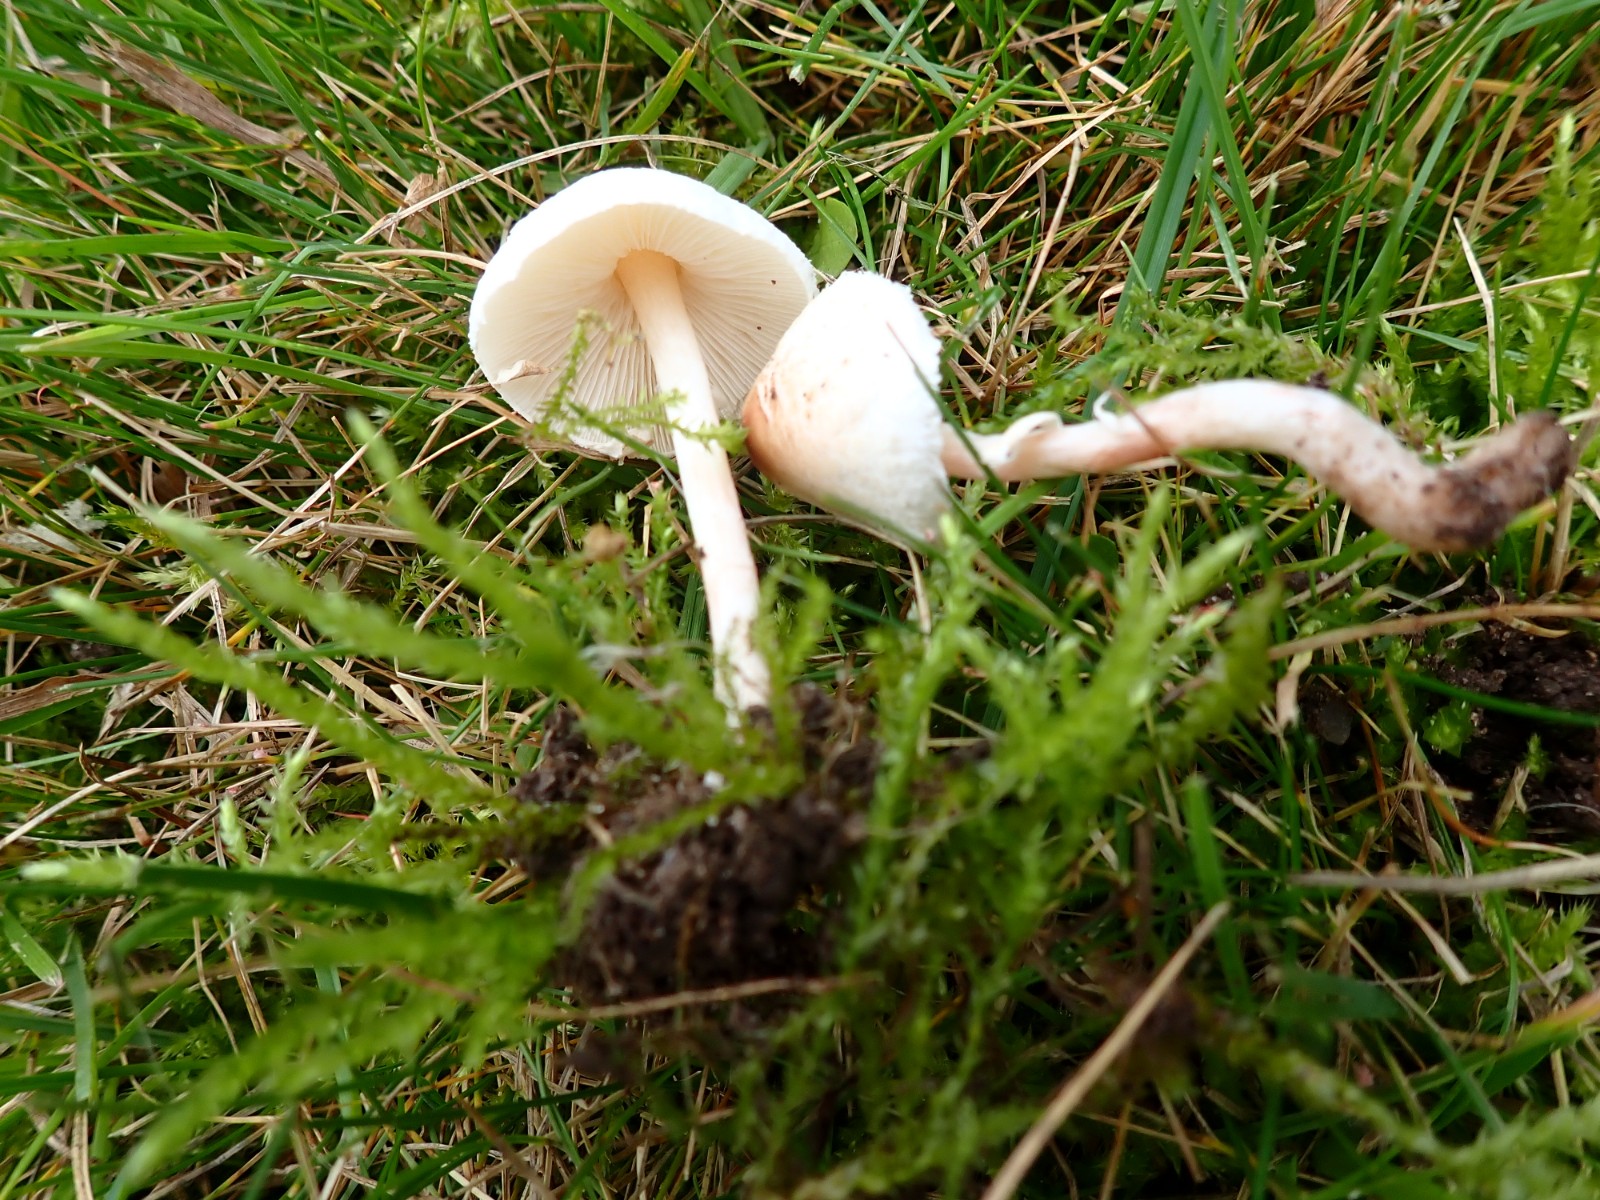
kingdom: Fungi
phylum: Basidiomycota
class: Agaricomycetes
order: Agaricales
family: Agaricaceae
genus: Lepiota
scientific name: Lepiota cristata
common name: stinkende parasolhat
